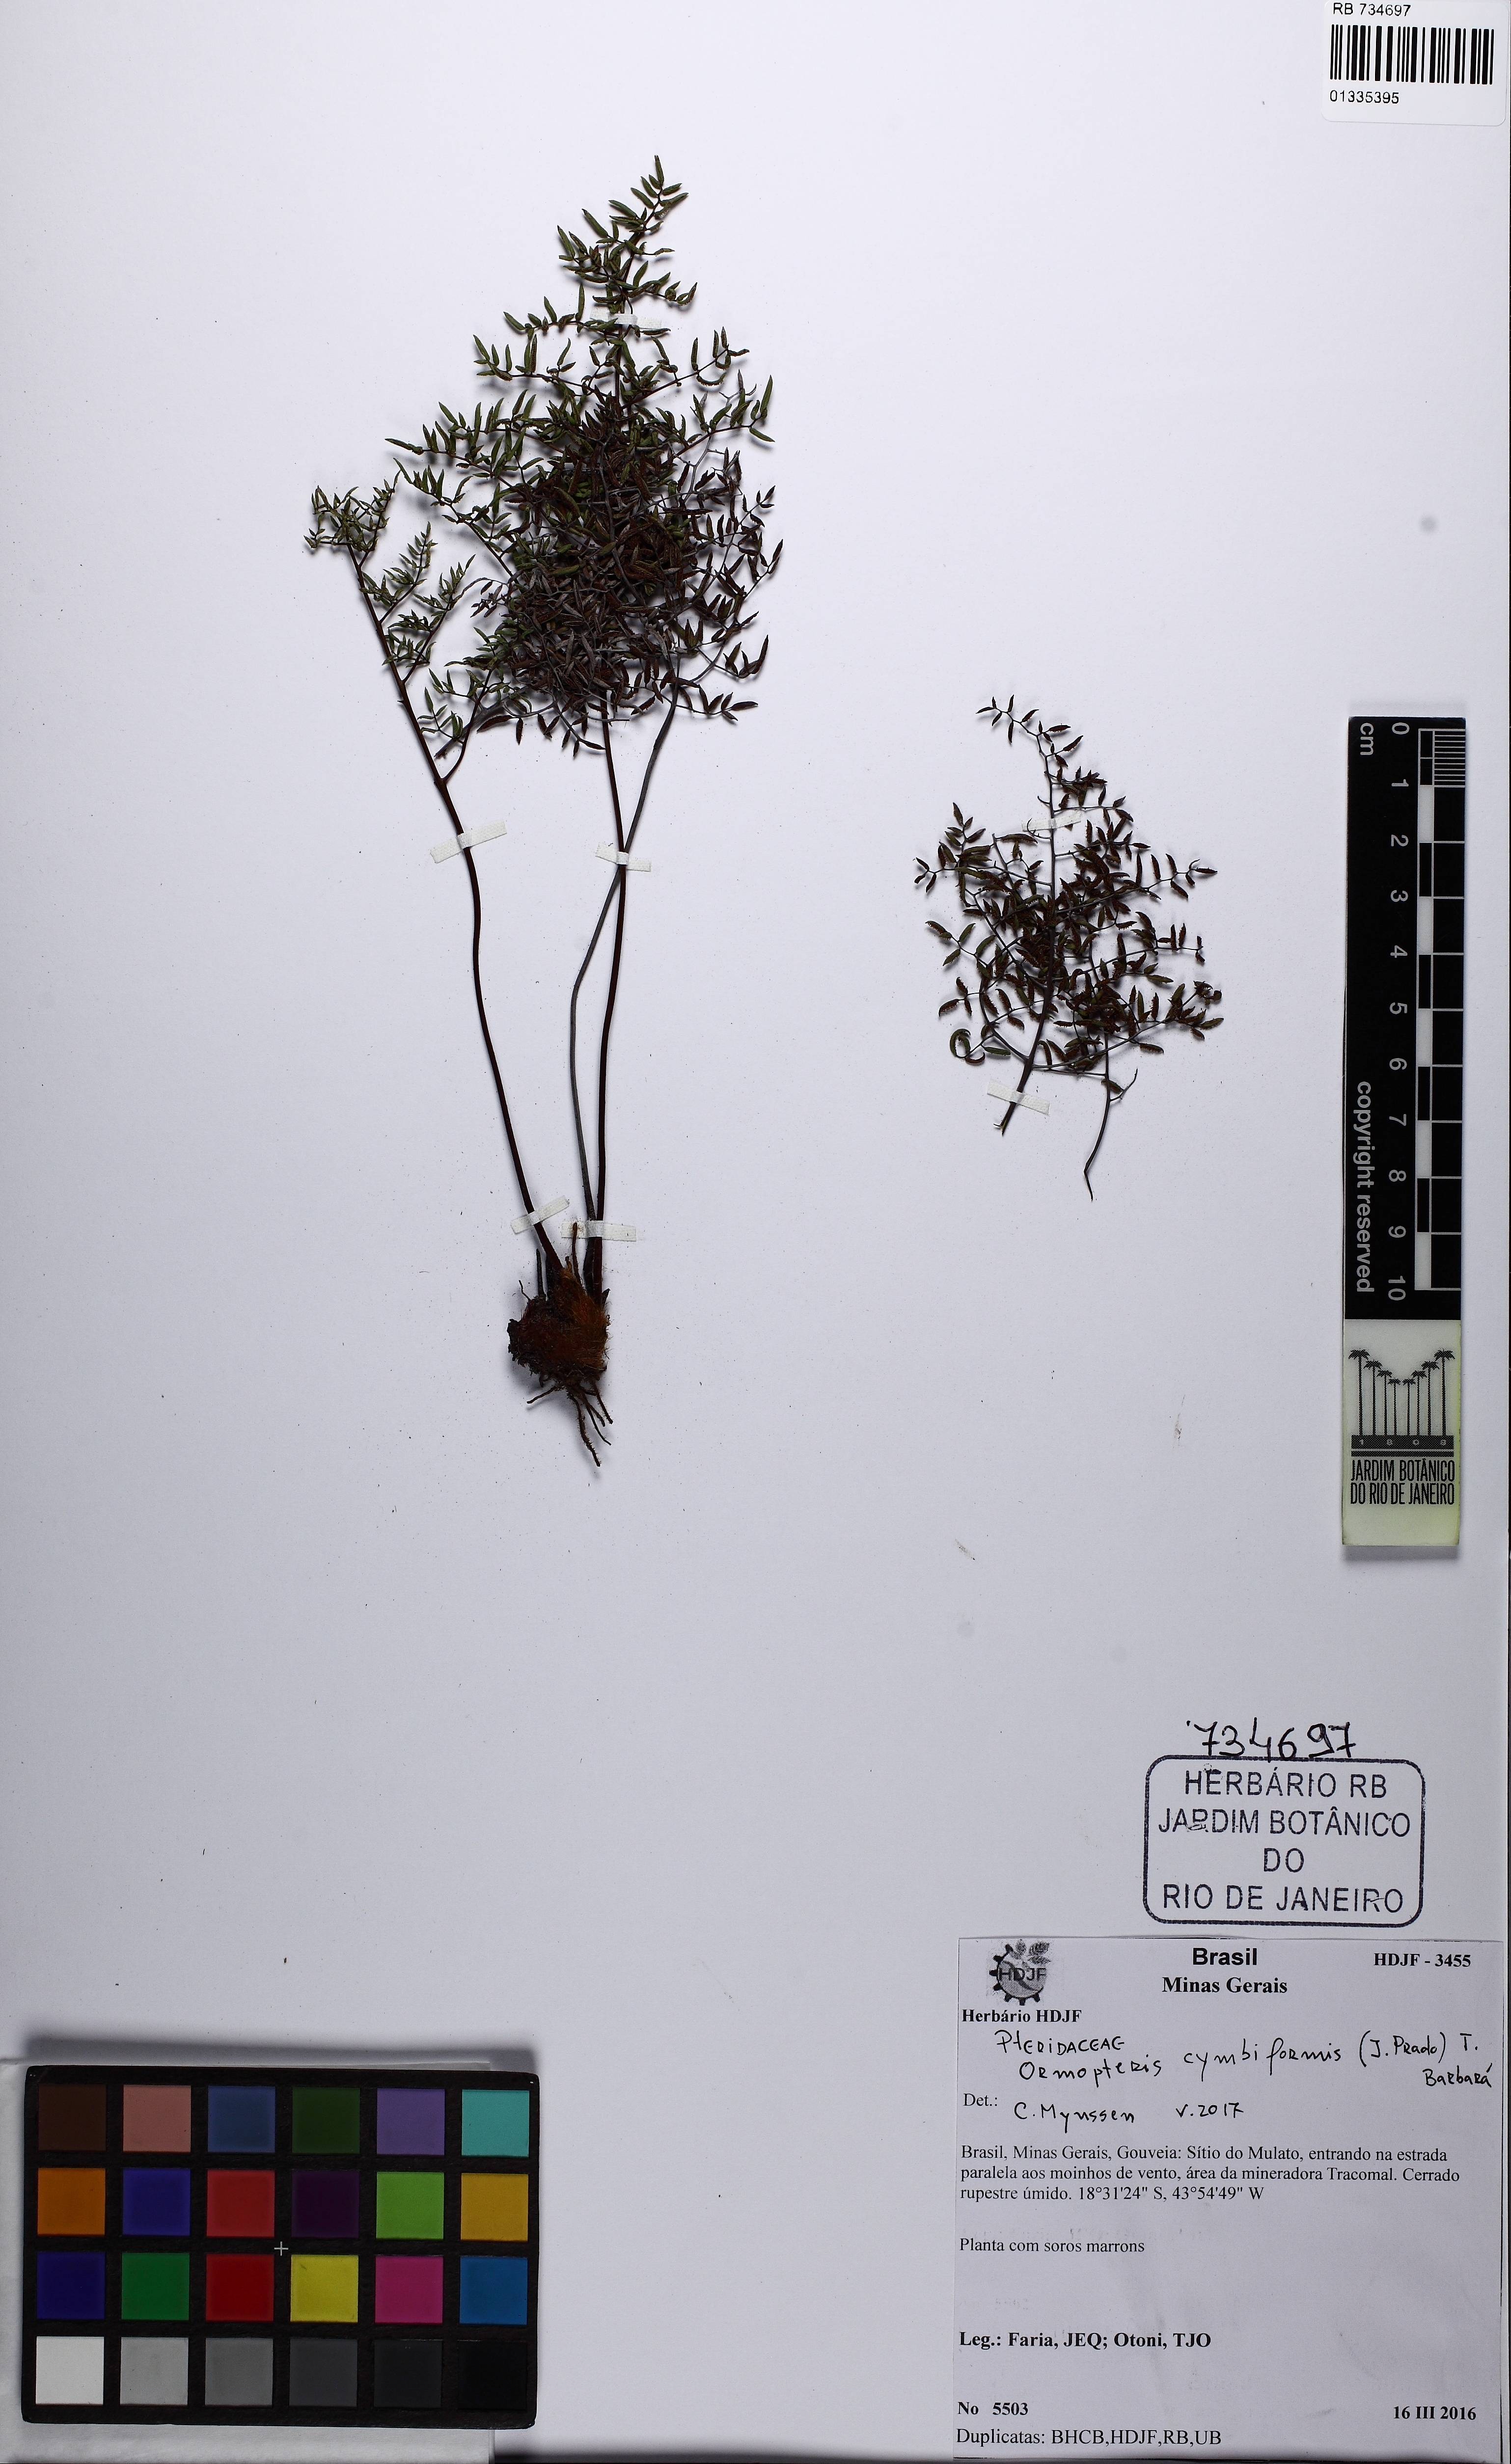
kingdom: Plantae
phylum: Tracheophyta
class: Polypodiopsida
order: Polypodiales
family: Pteridaceae
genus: Ormopteris
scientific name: Ormopteris cymbiformis
